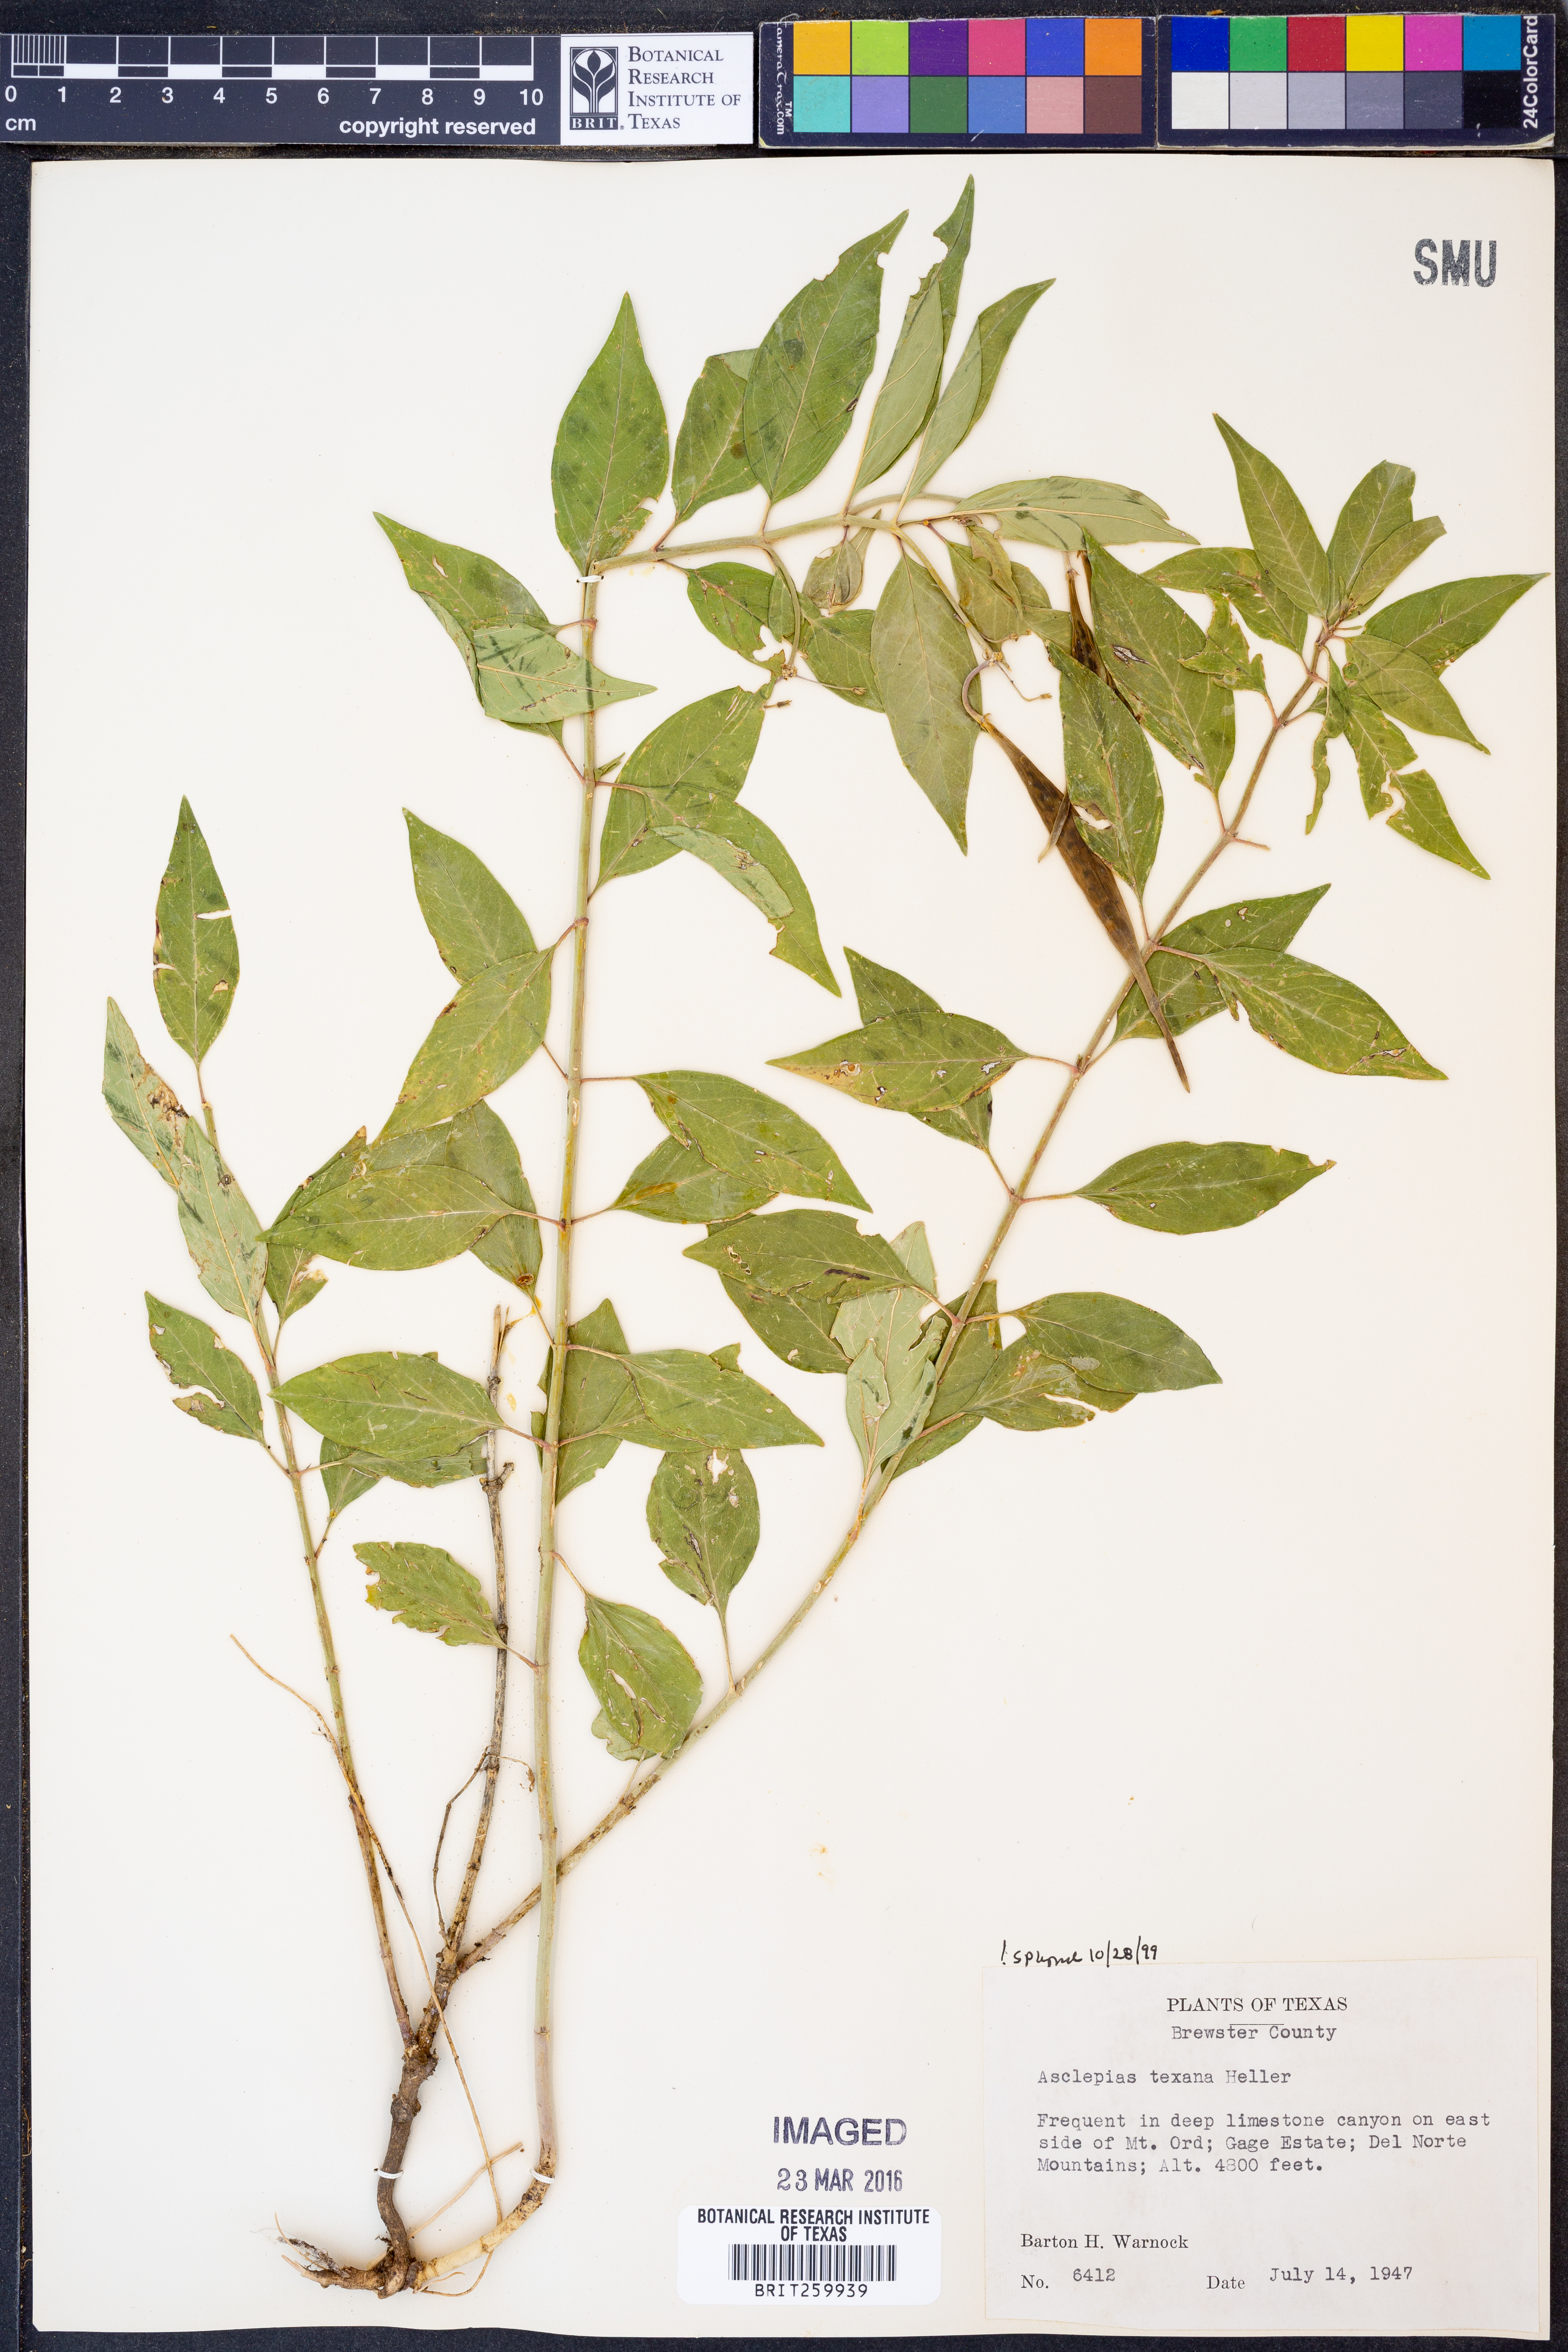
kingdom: Plantae
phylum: Tracheophyta
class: Magnoliopsida
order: Gentianales
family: Apocynaceae
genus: Asclepias
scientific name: Asclepias texana
